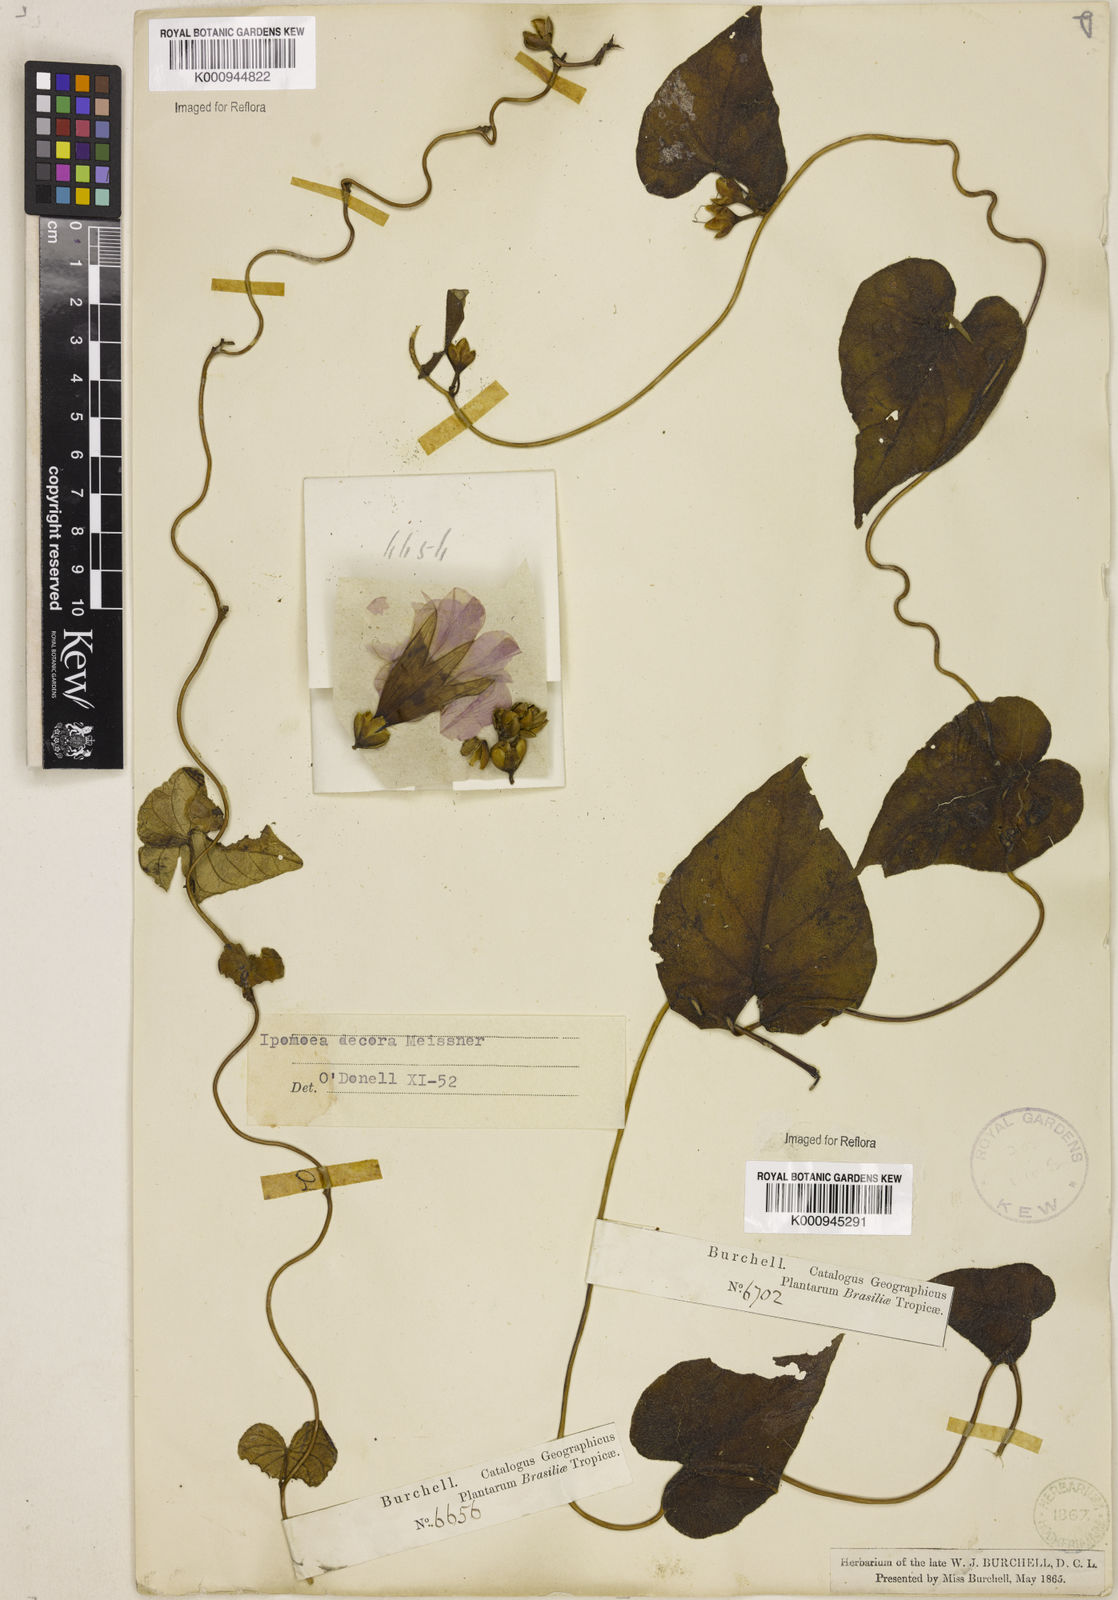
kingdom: Plantae
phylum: Tracheophyta
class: Magnoliopsida
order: Solanales
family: Convolvulaceae
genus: Ipomoea
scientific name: Ipomoea goyazensis
